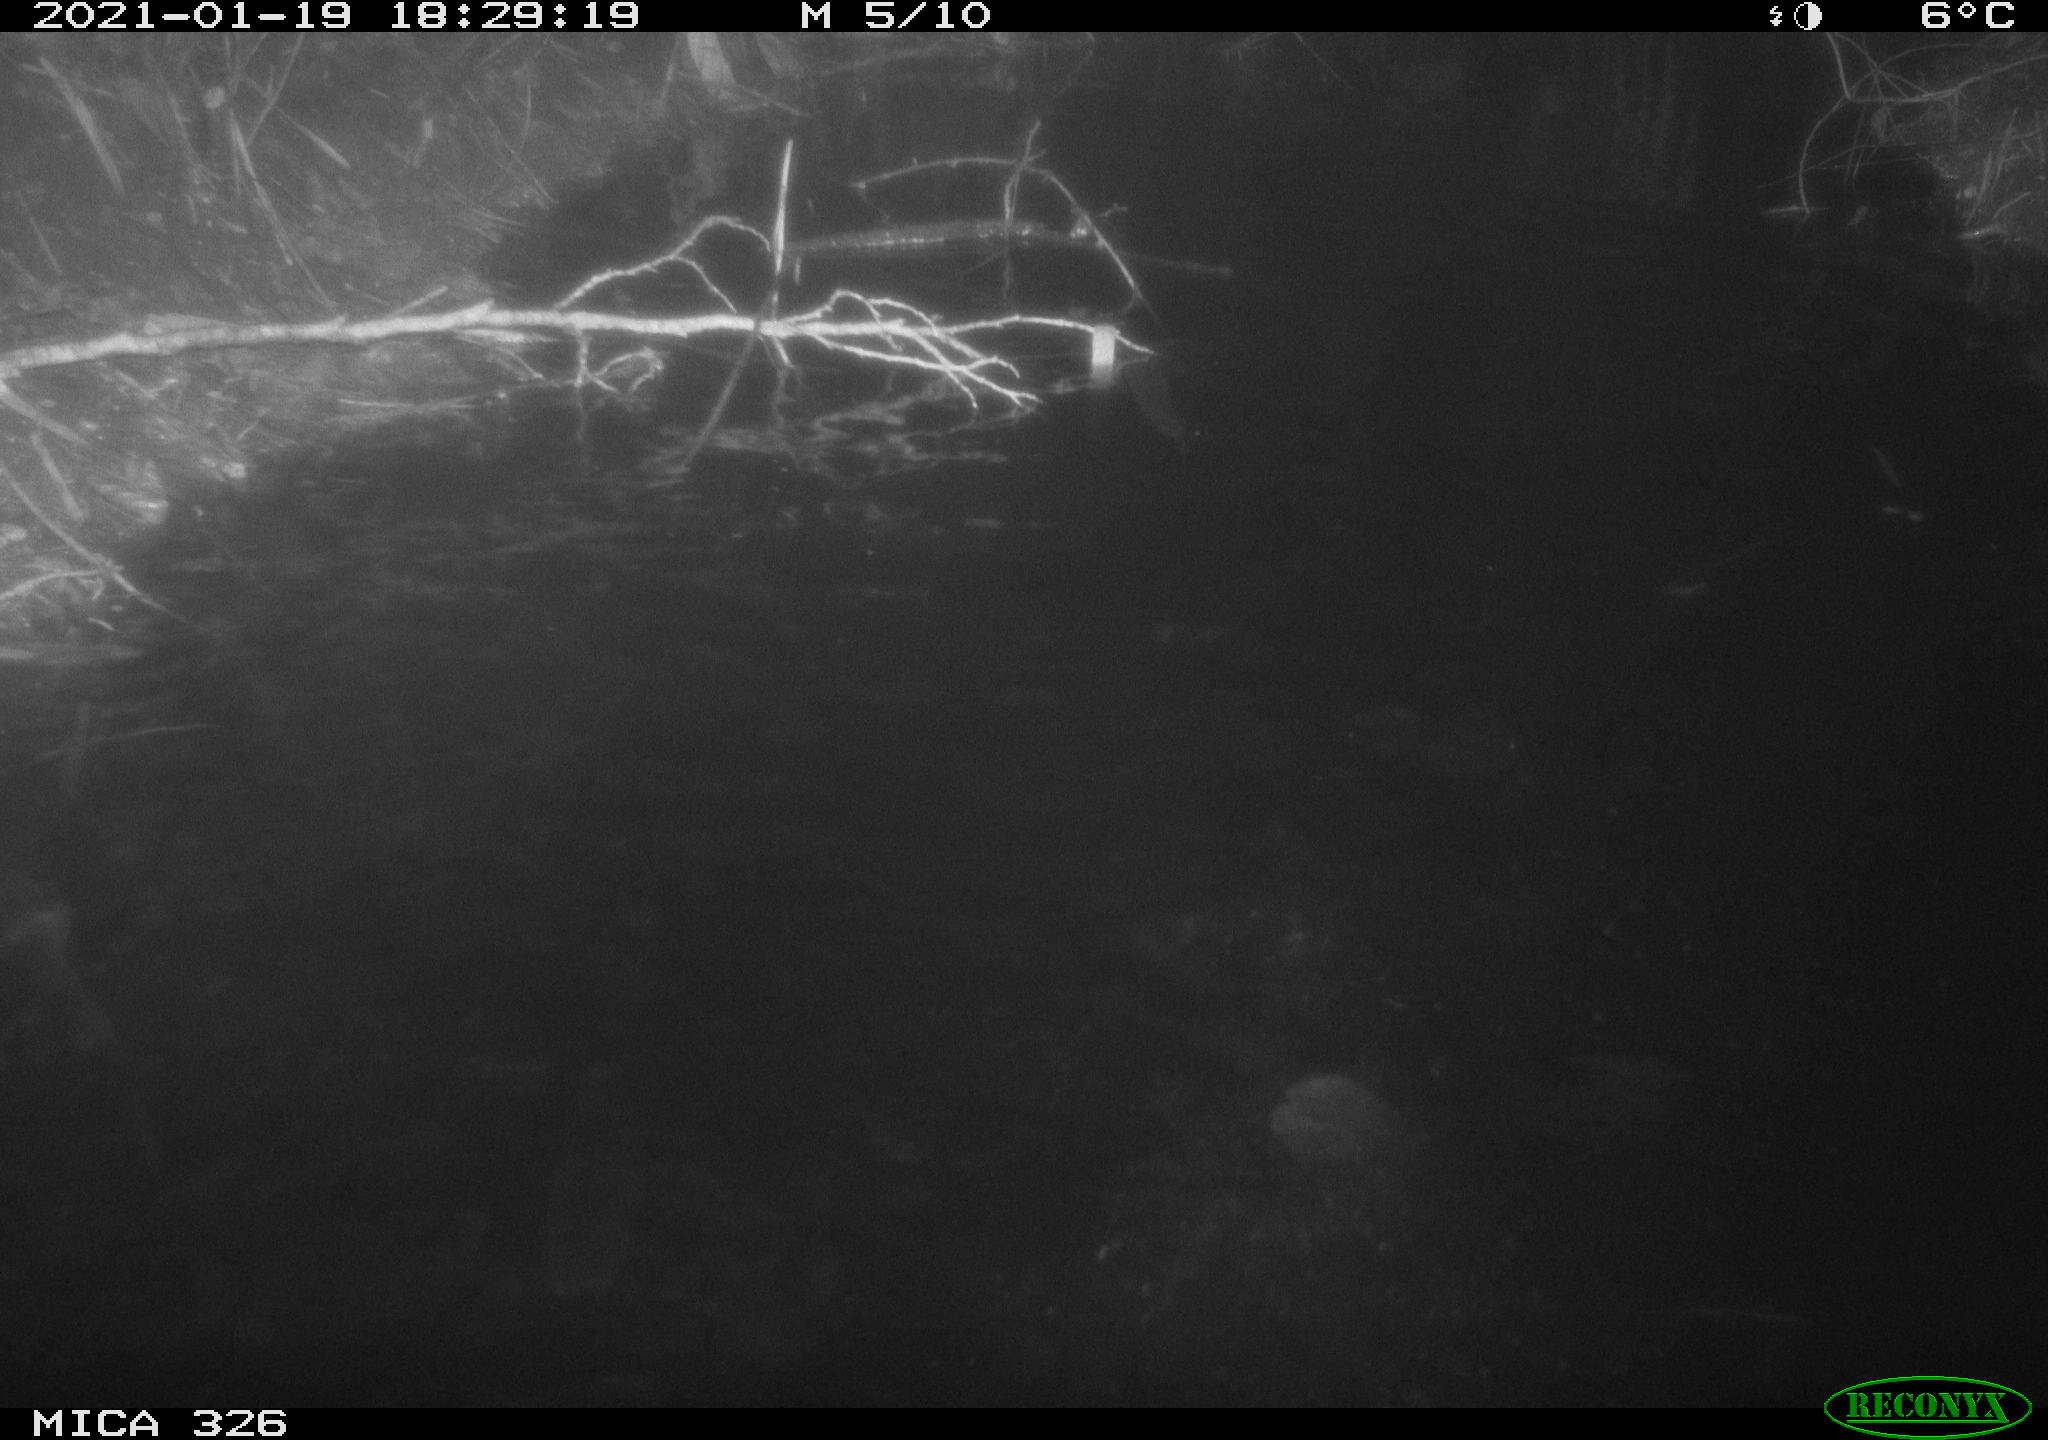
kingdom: Animalia
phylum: Chordata
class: Mammalia
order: Carnivora
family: Mustelidae
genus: Lutra
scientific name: Lutra lutra
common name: European otter
